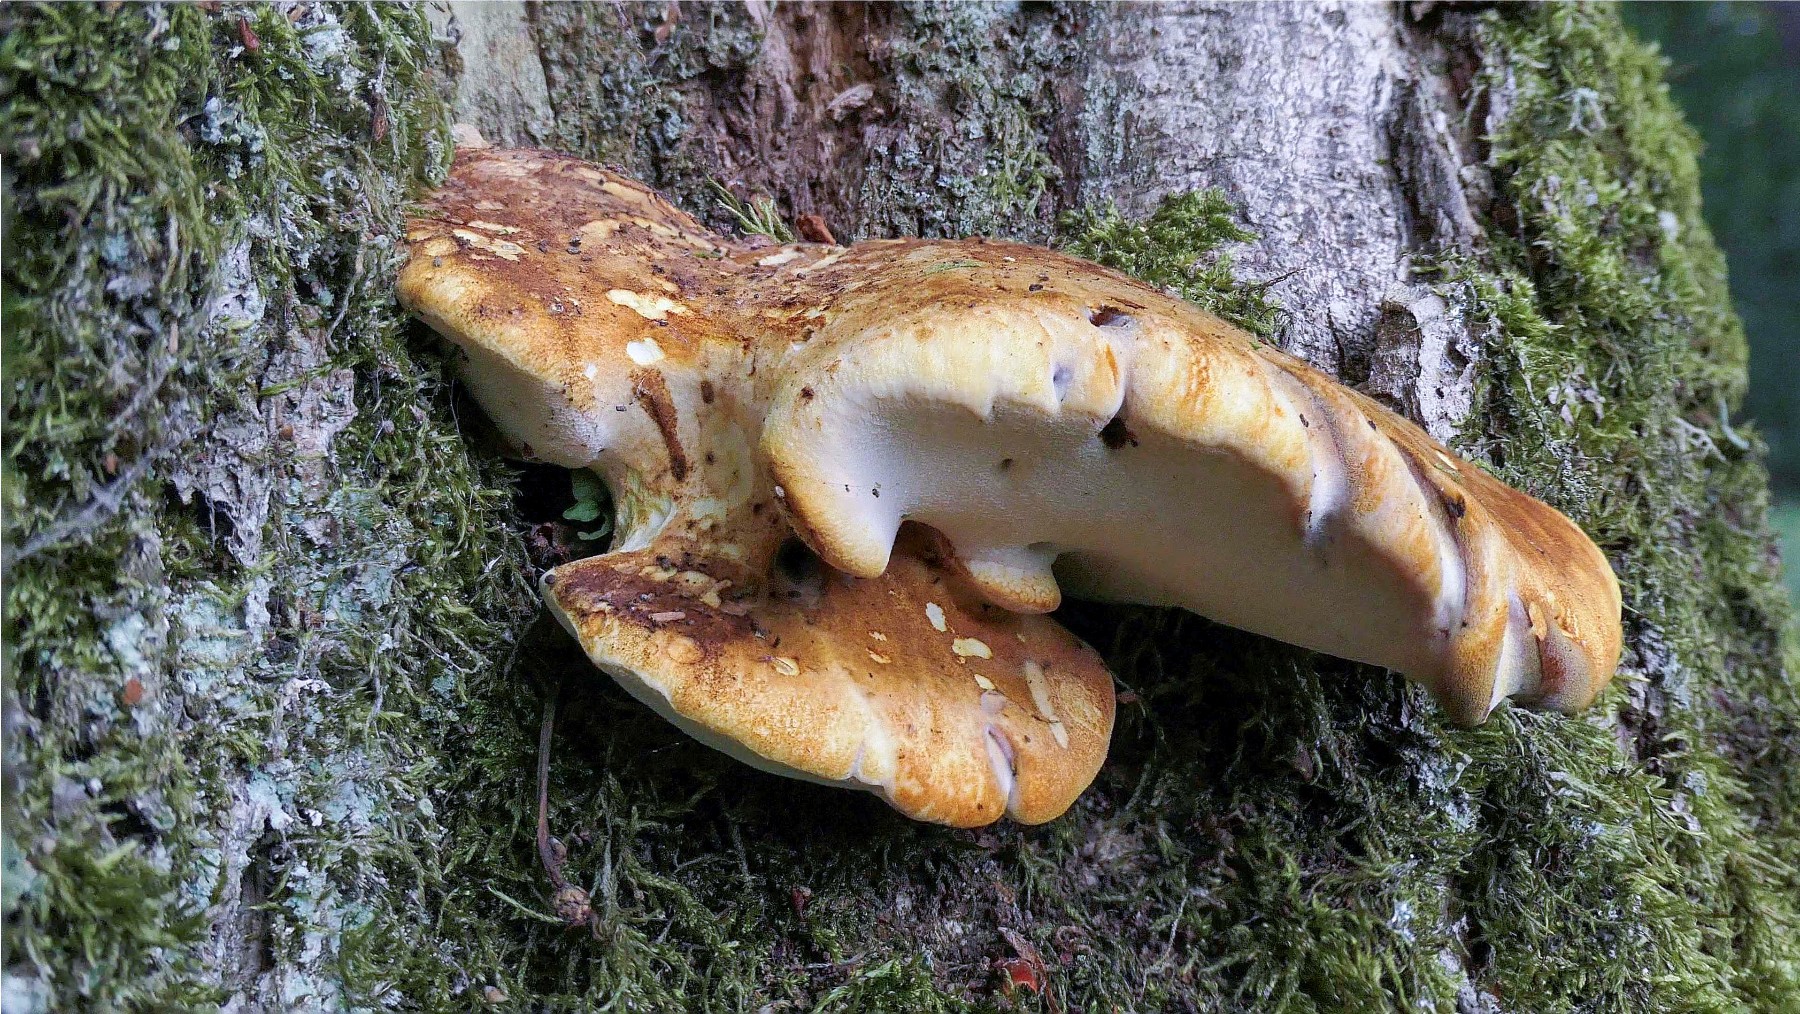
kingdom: Fungi
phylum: Basidiomycota
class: Agaricomycetes
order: Polyporales
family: Fomitopsidaceae
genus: Buglossoporus
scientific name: Buglossoporus quercinus
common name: egetunge
